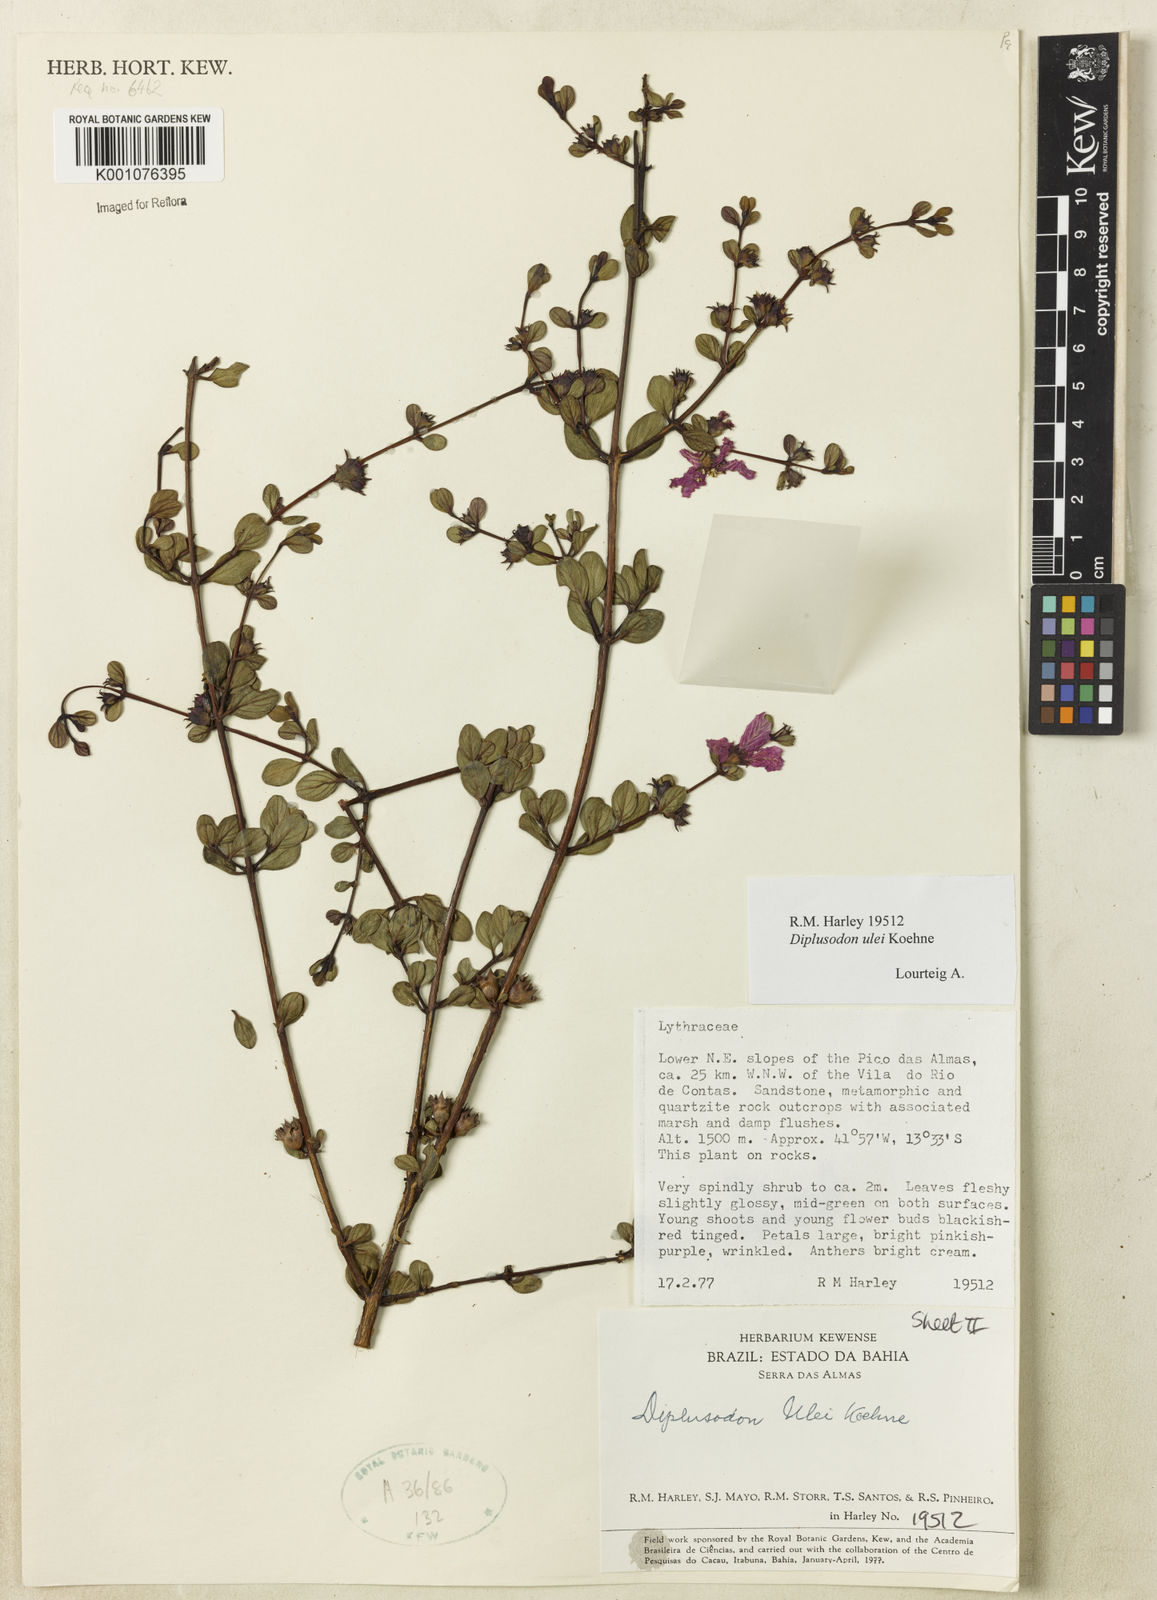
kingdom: Plantae
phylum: Tracheophyta
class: Magnoliopsida
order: Myrtales
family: Lythraceae
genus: Diplusodon
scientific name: Diplusodon ulei
